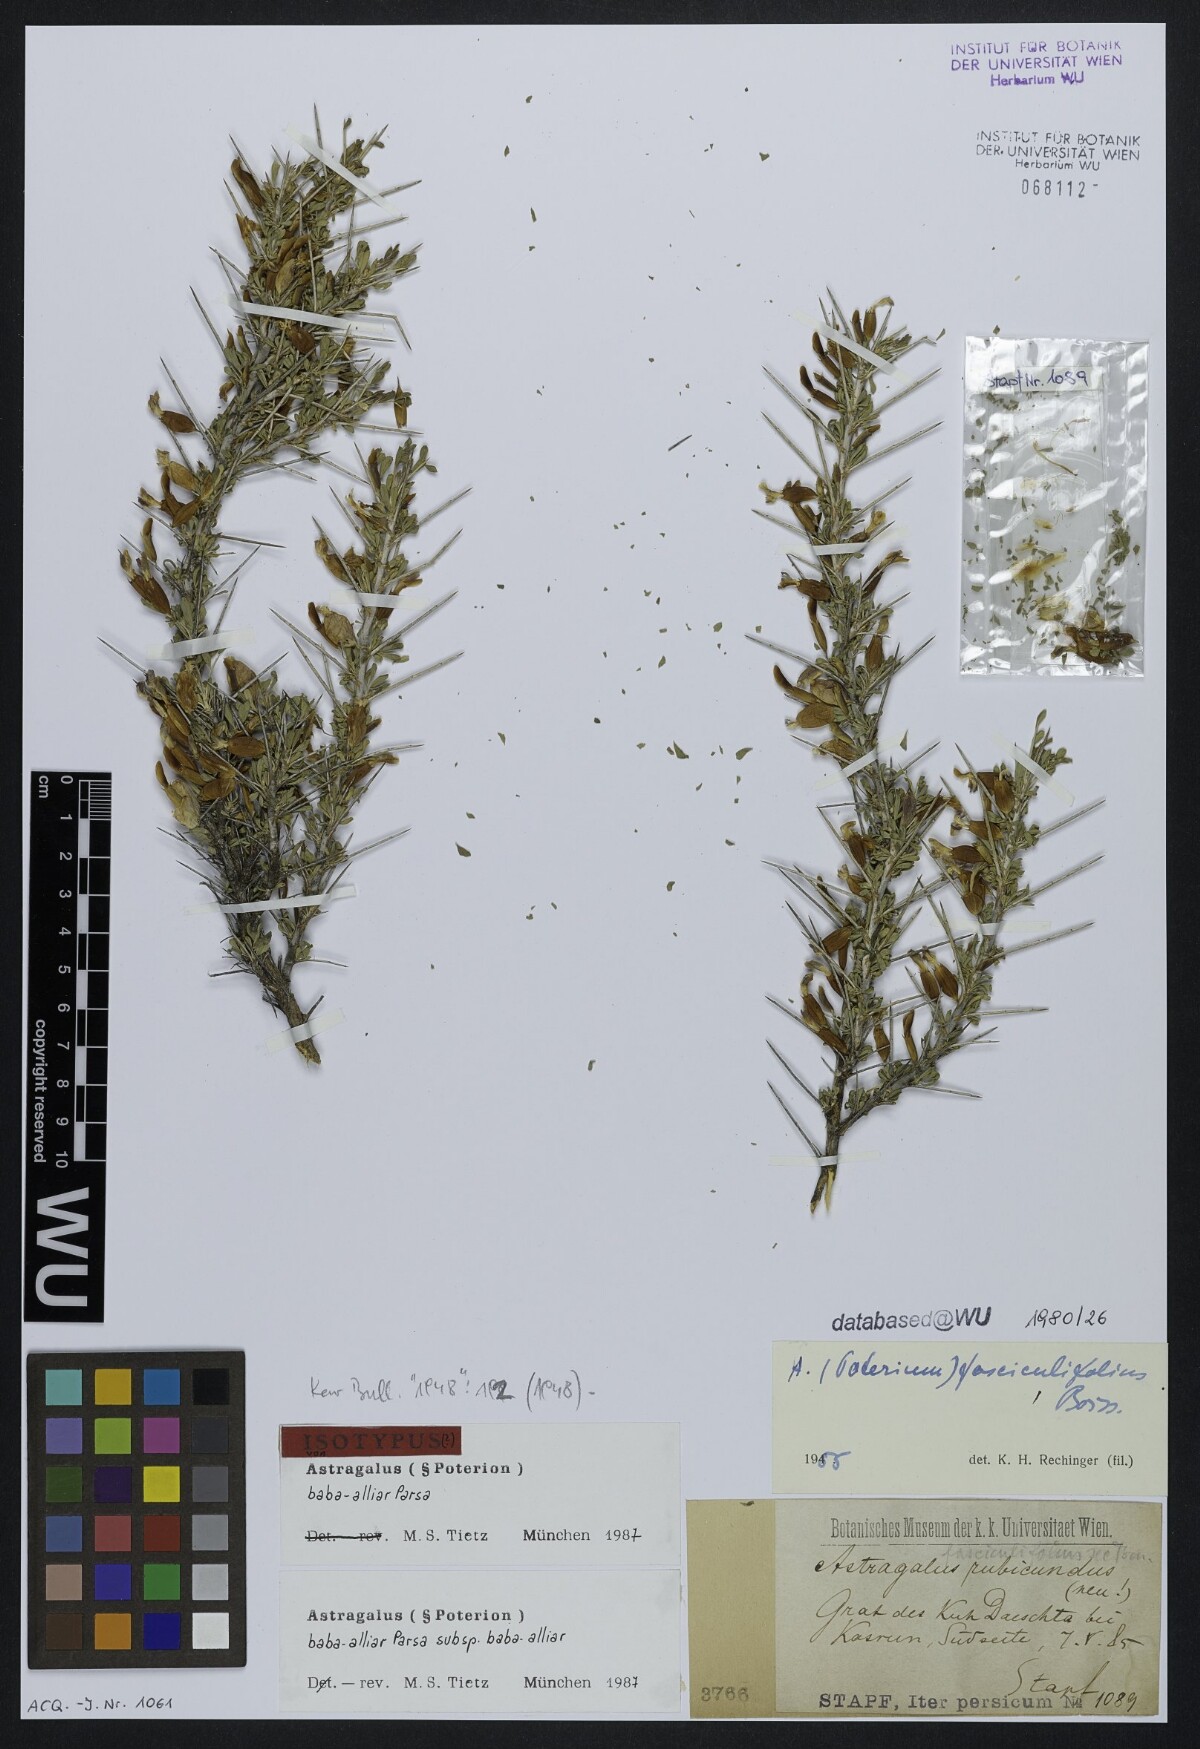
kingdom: Plantae
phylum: Tracheophyta
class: Magnoliopsida
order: Fabales
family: Fabaceae
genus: Astragalus
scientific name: Astragalus baba-alliar
